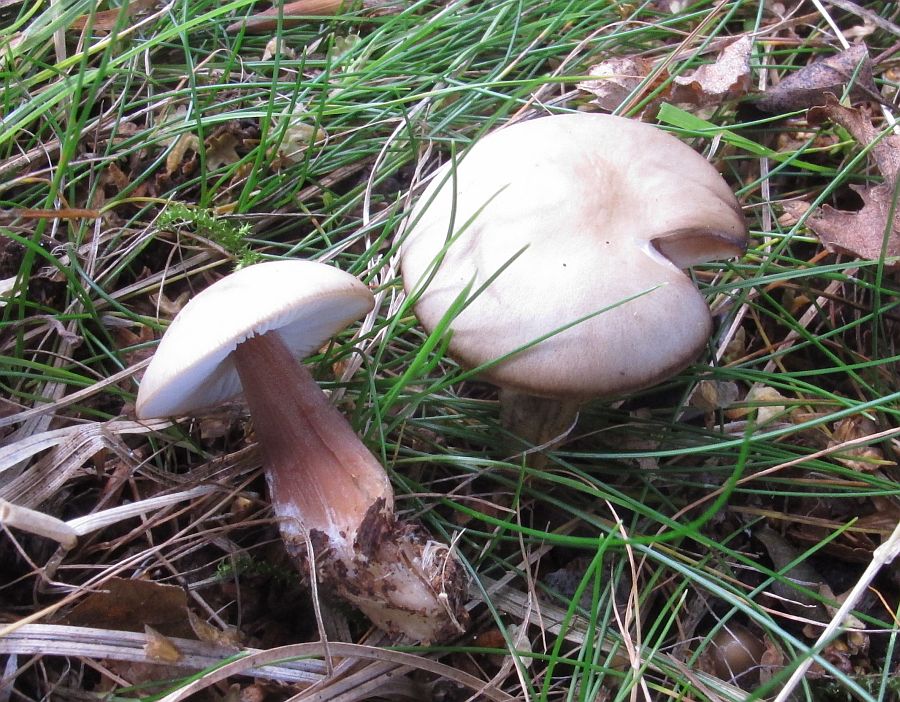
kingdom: Fungi
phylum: Basidiomycota
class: Agaricomycetes
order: Agaricales
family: Omphalotaceae
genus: Rhodocollybia
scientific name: Rhodocollybia asema
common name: horngrå fladhat
